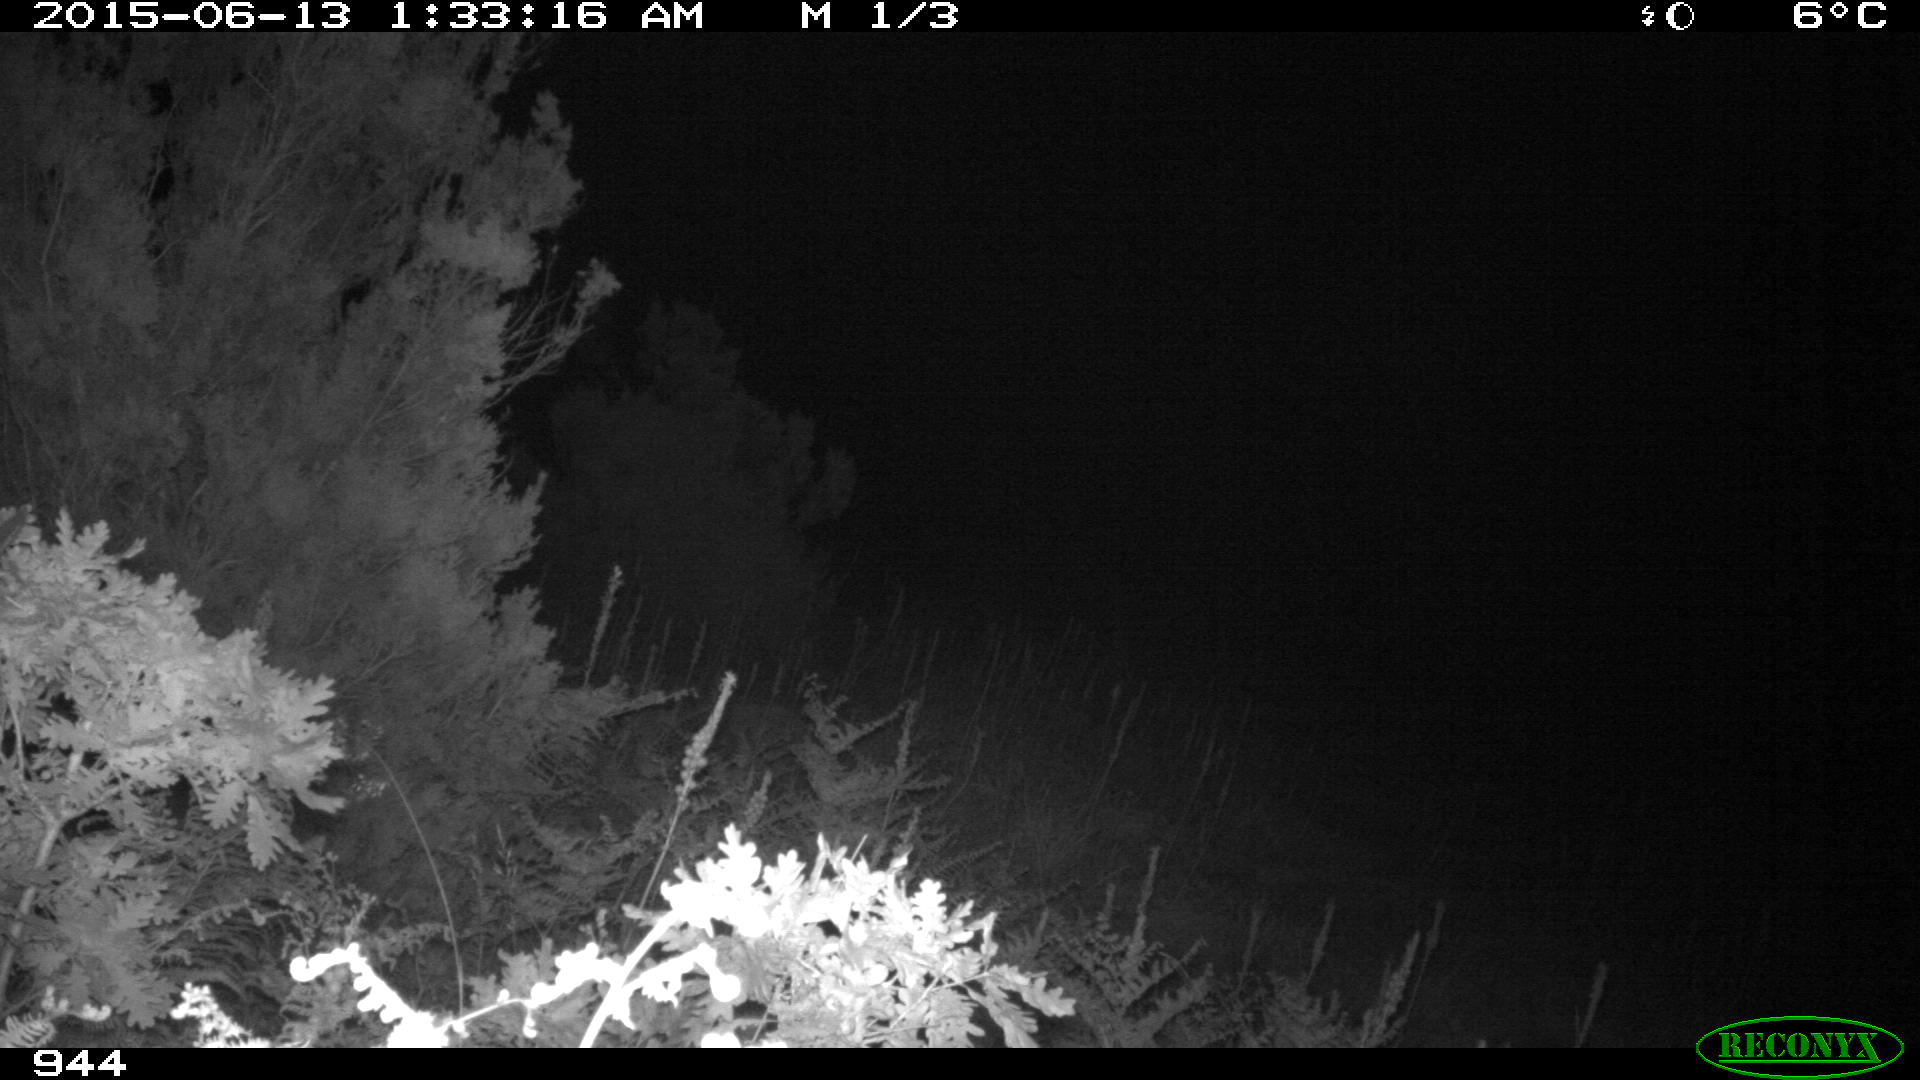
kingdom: Animalia
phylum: Chordata
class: Mammalia
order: Artiodactyla
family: Cervidae
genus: Capreolus
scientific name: Capreolus capreolus
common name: Western roe deer
